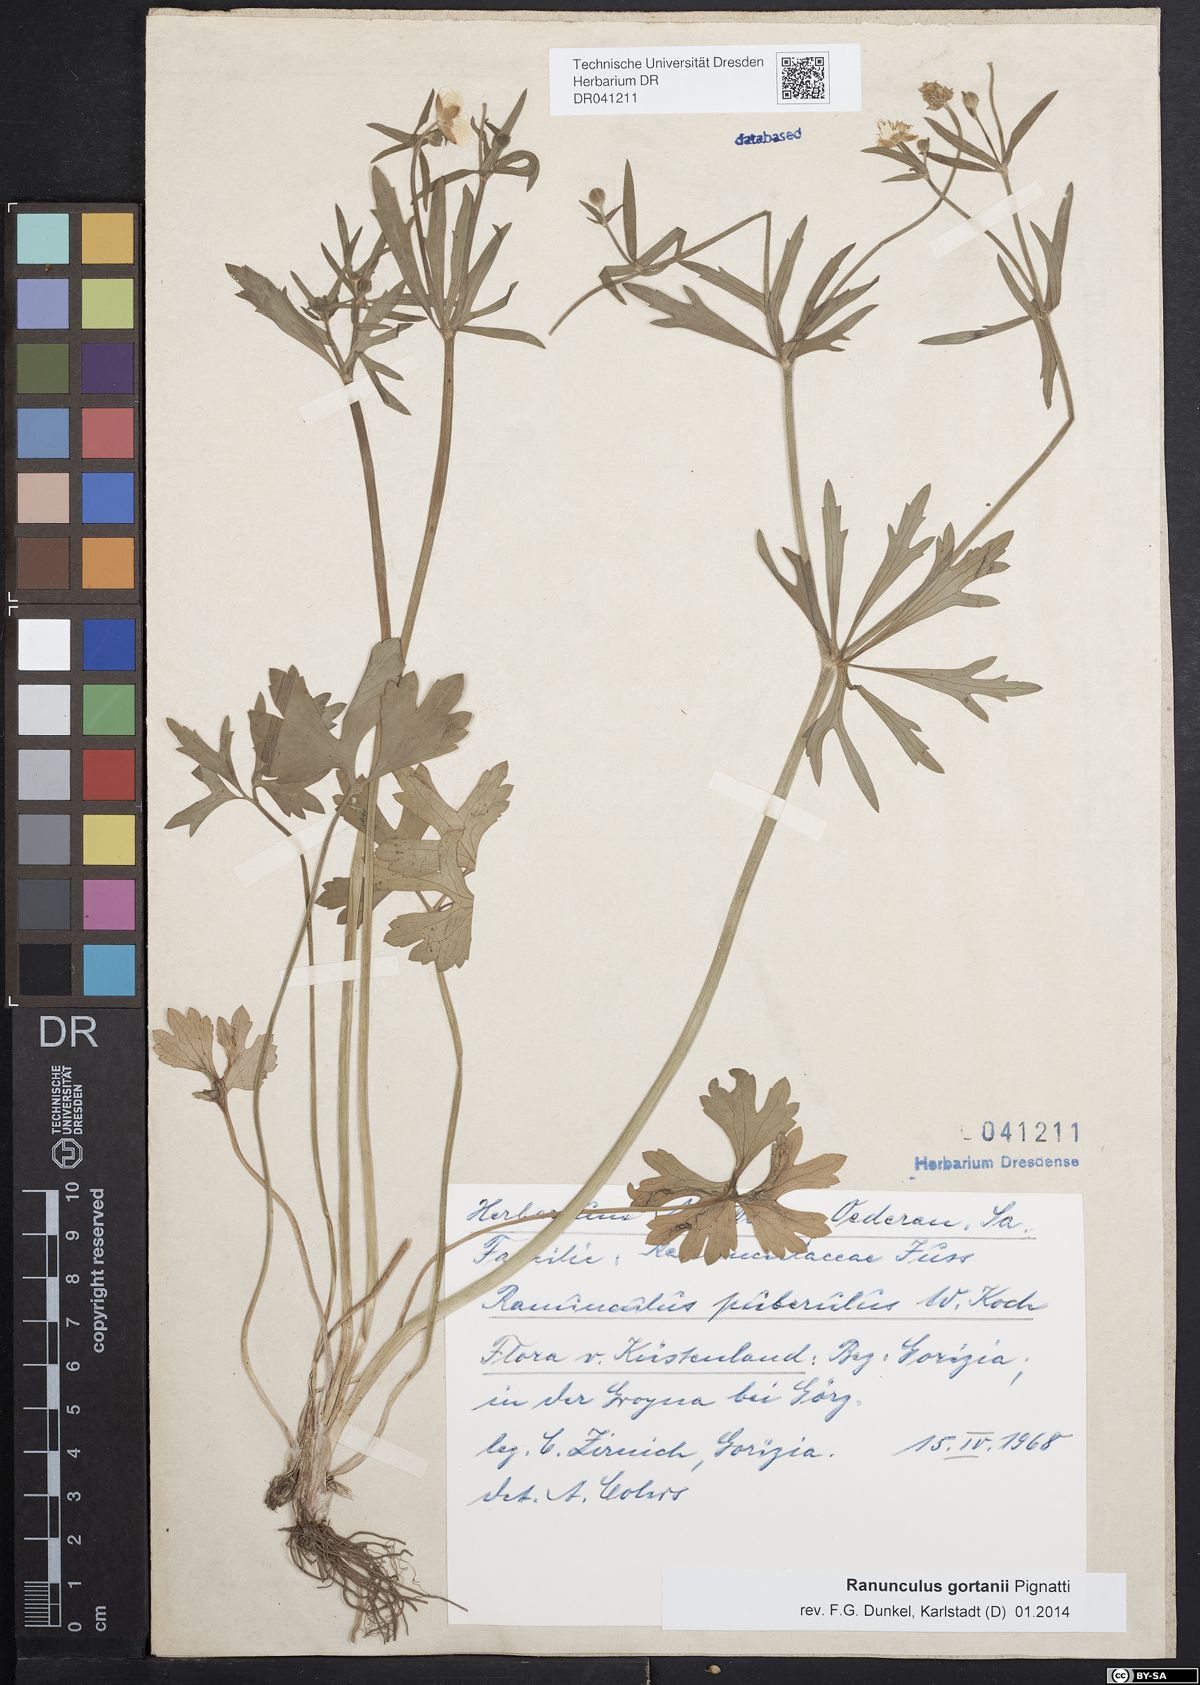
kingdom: Plantae
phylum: Tracheophyta
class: Magnoliopsida
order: Ranunculales
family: Ranunculaceae
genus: Ranunculus
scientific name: Ranunculus gortanii
